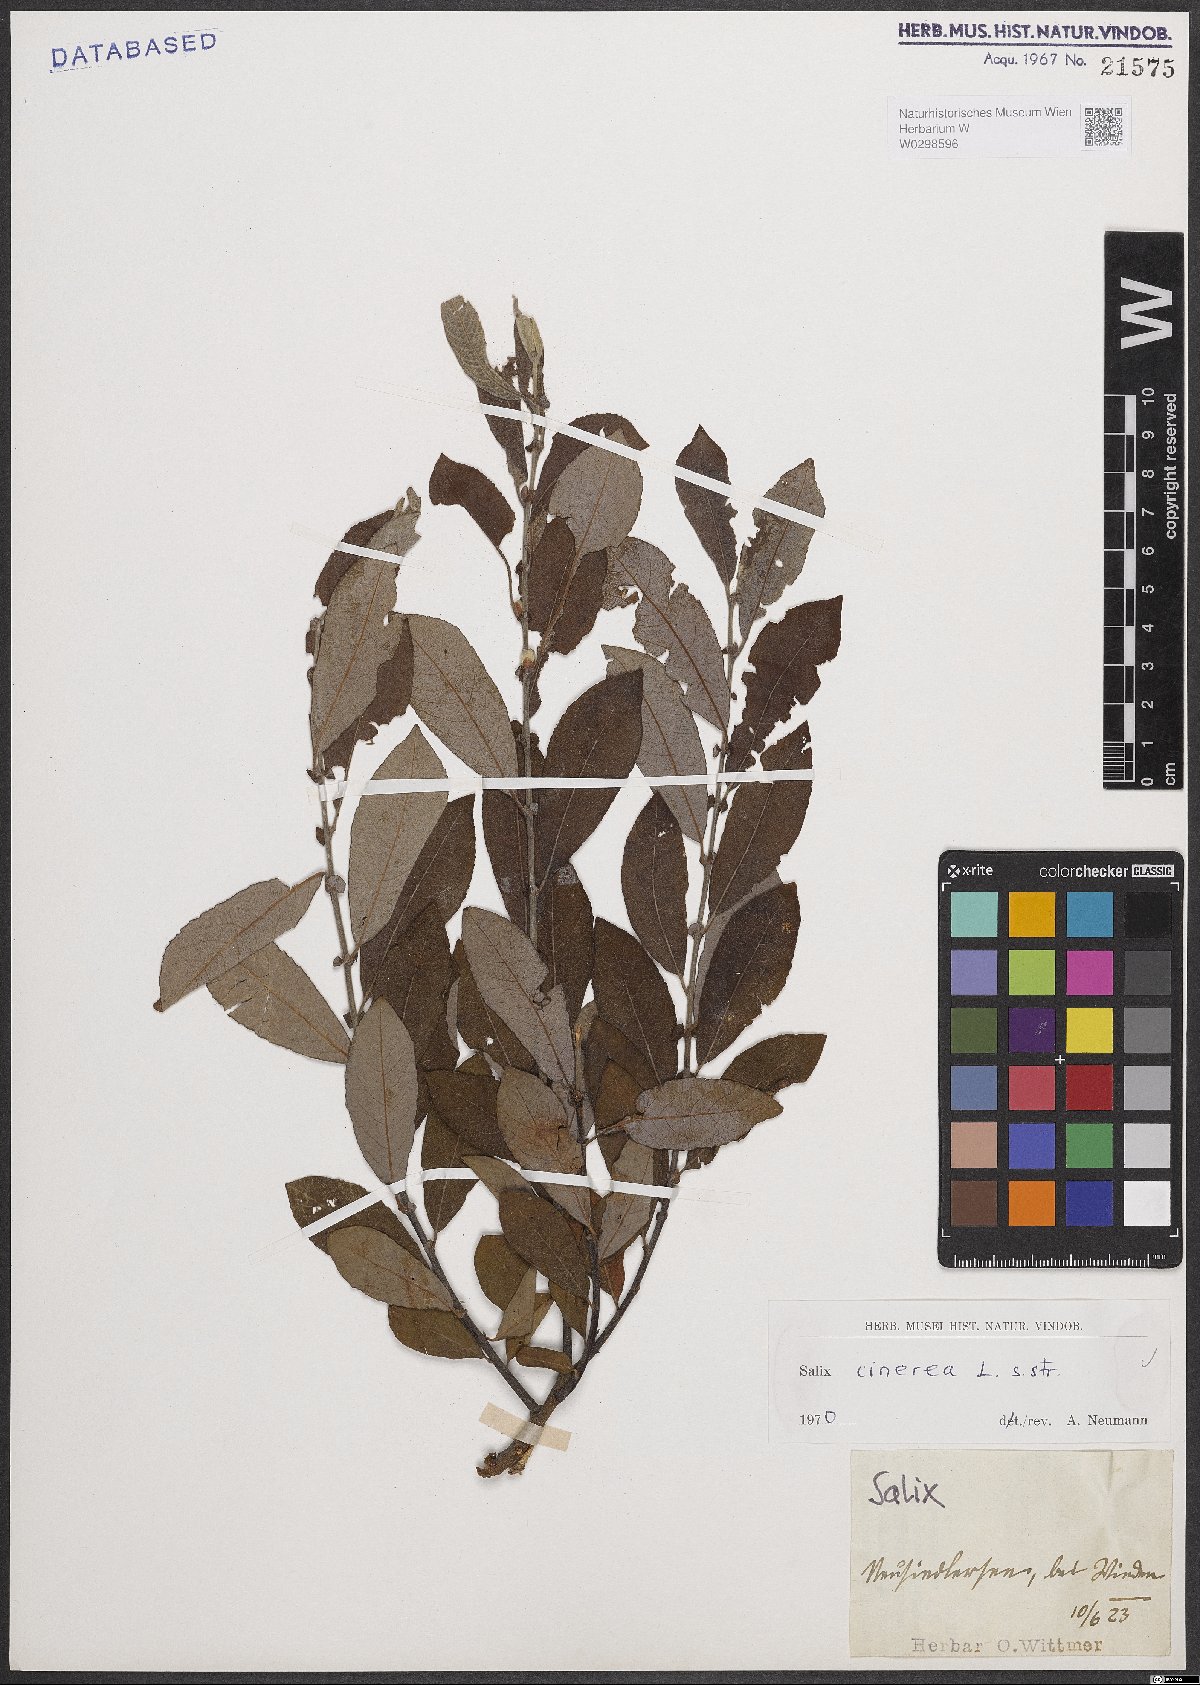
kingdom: Plantae
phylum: Tracheophyta
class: Magnoliopsida
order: Malpighiales
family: Salicaceae
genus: Salix
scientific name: Salix cinerea
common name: Common sallow
